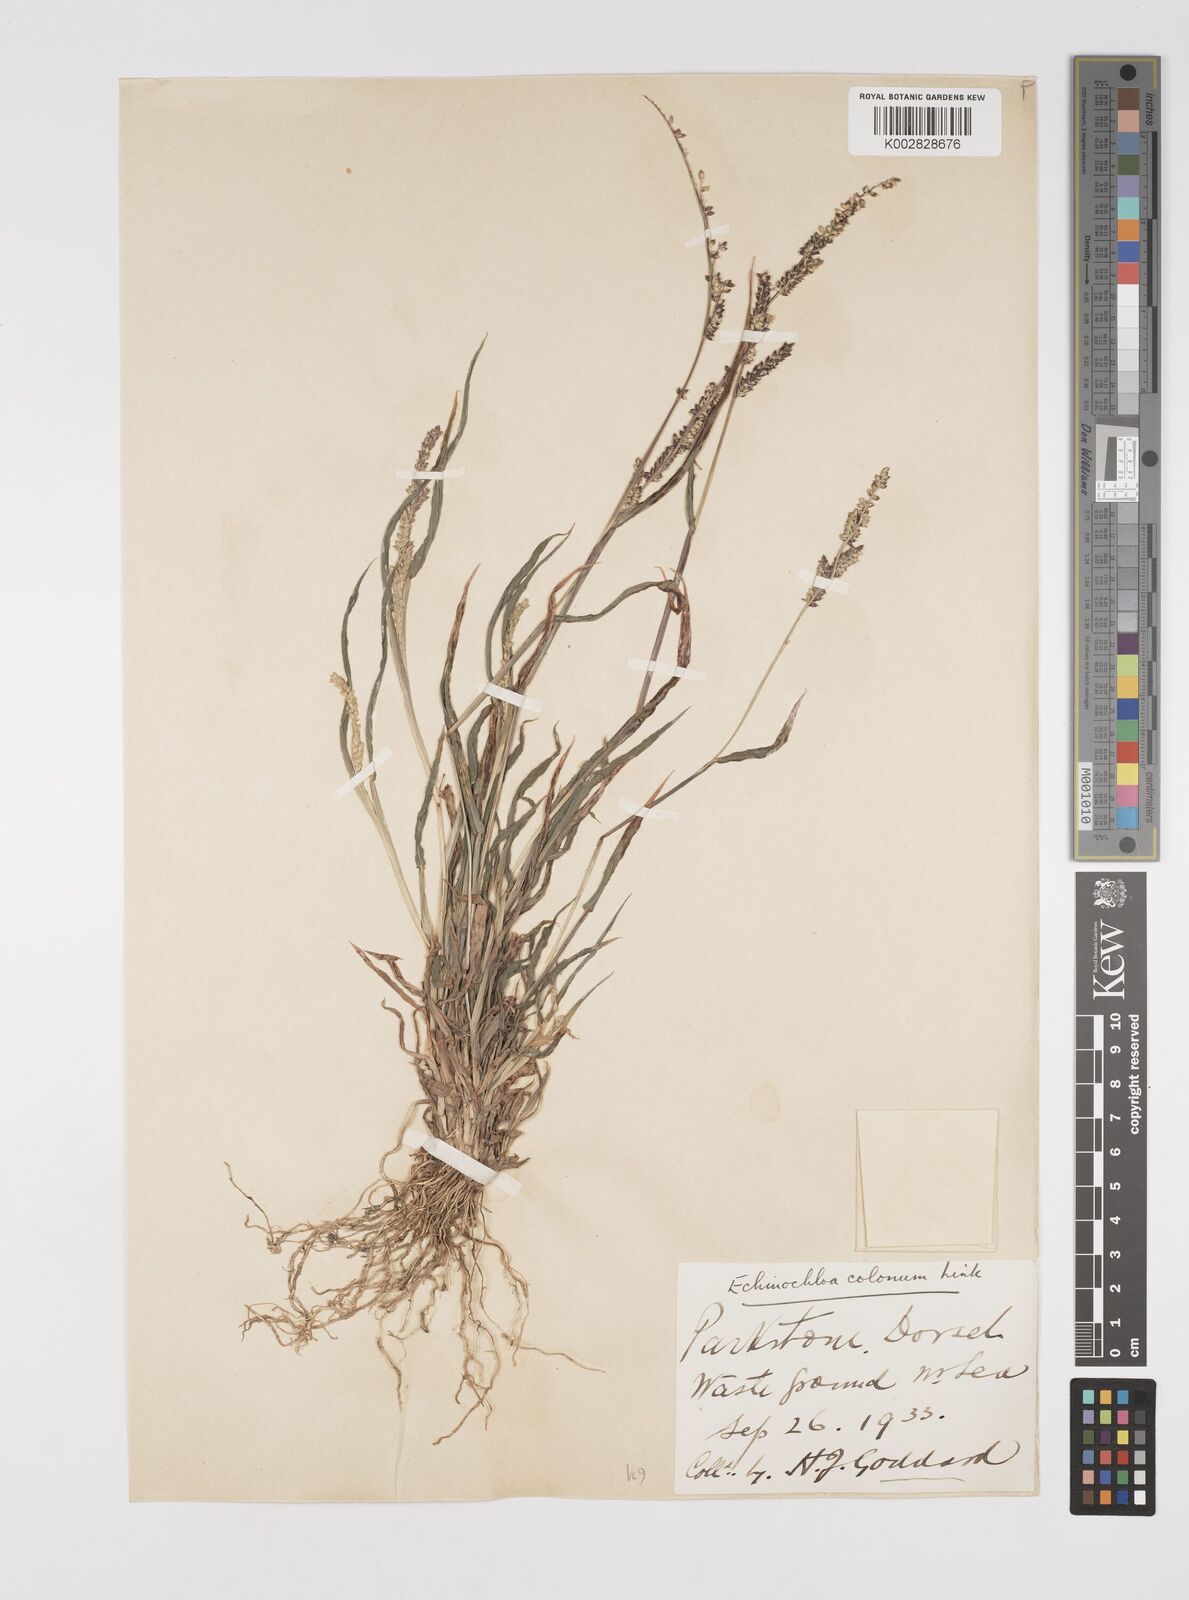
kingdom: Plantae
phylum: Tracheophyta
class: Liliopsida
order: Poales
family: Poaceae
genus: Echinochloa
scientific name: Echinochloa colonum
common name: Jungle rice
